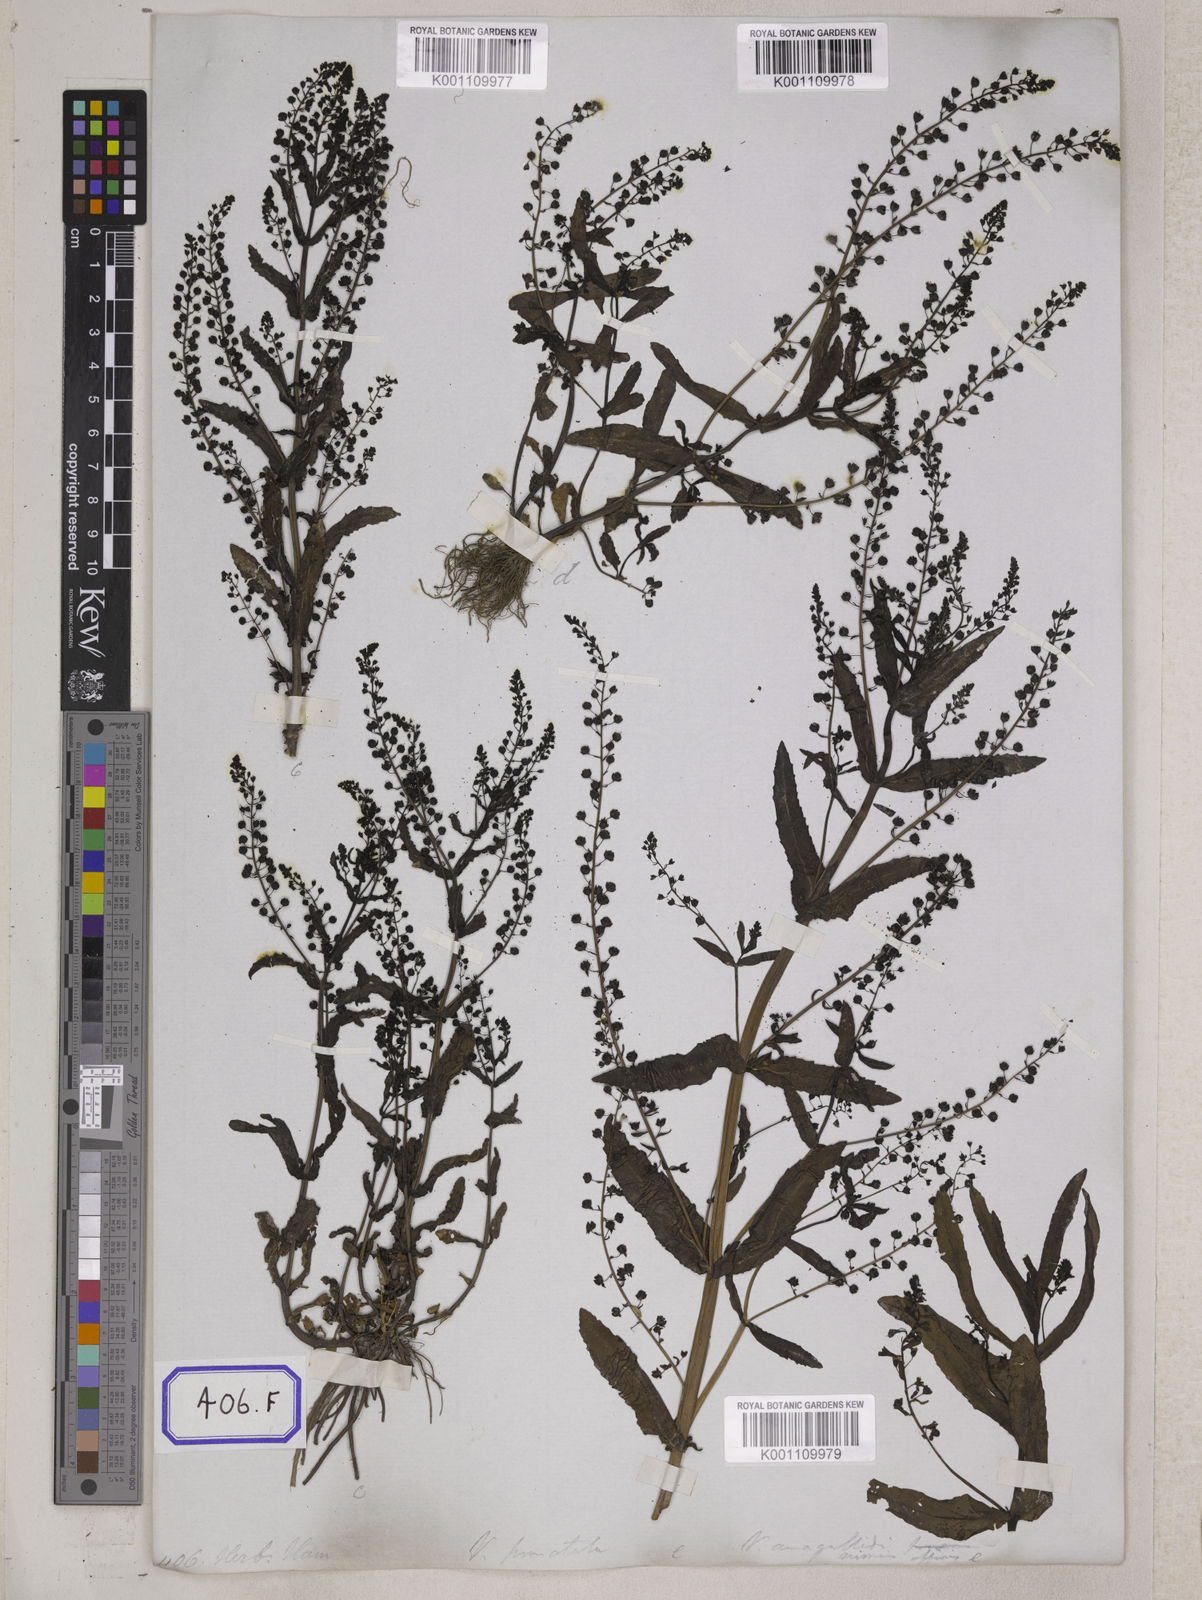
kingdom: Plantae
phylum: Tracheophyta
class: Magnoliopsida
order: Lamiales
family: Plantaginaceae
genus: Veronica
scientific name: Veronica undulata
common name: Undulate speedwell
